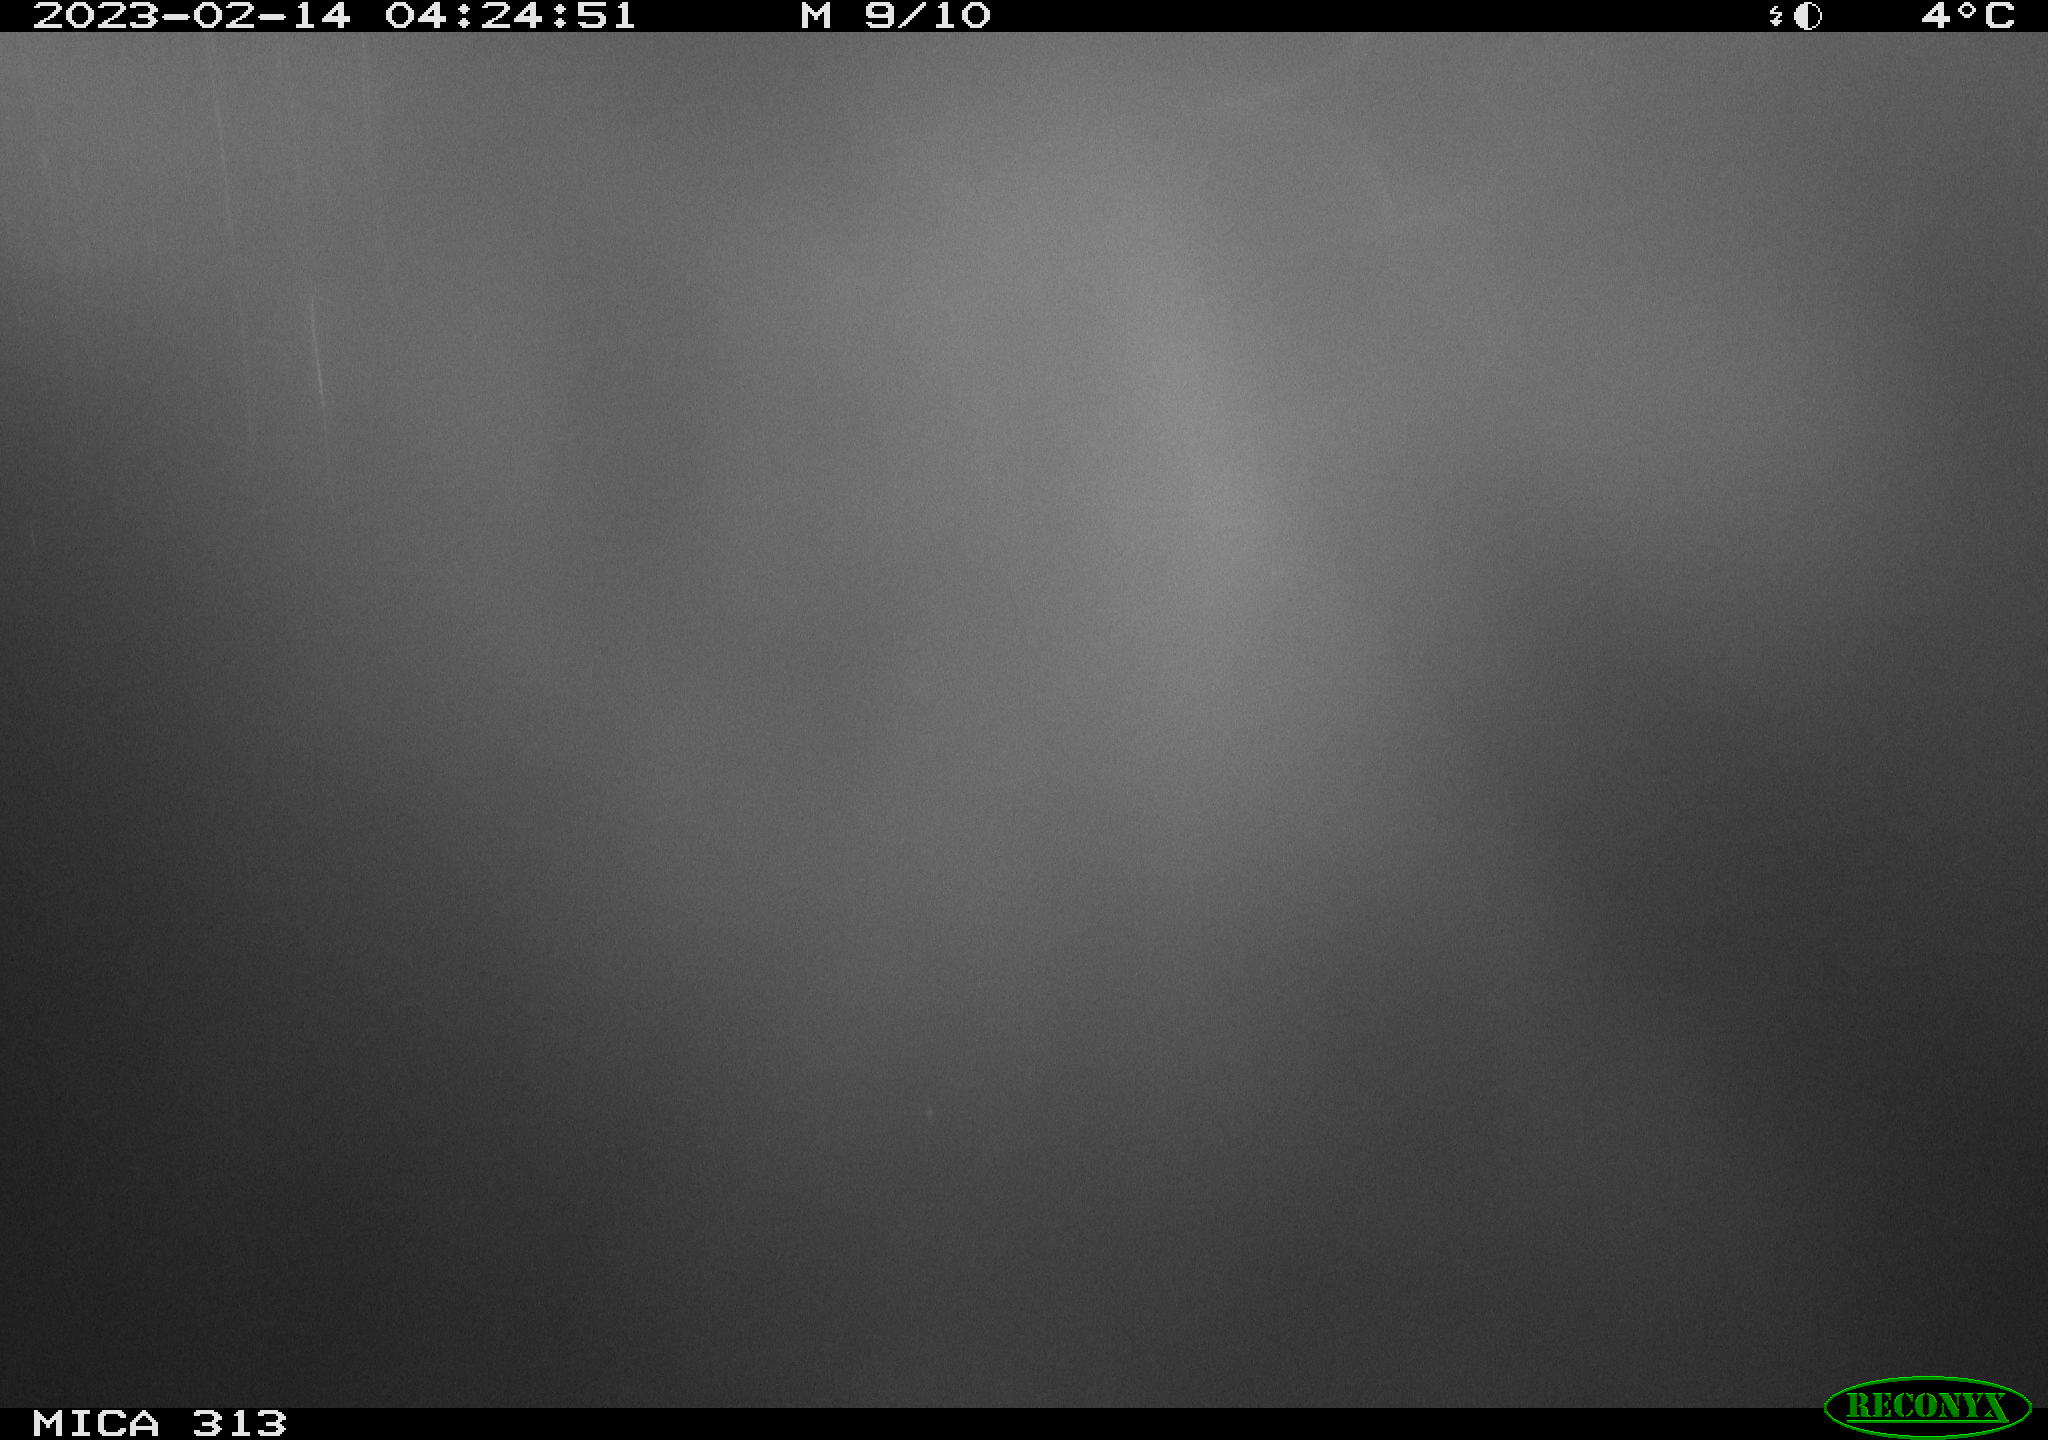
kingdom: Animalia
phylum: Chordata
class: Mammalia
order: Rodentia
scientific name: Rodentia
